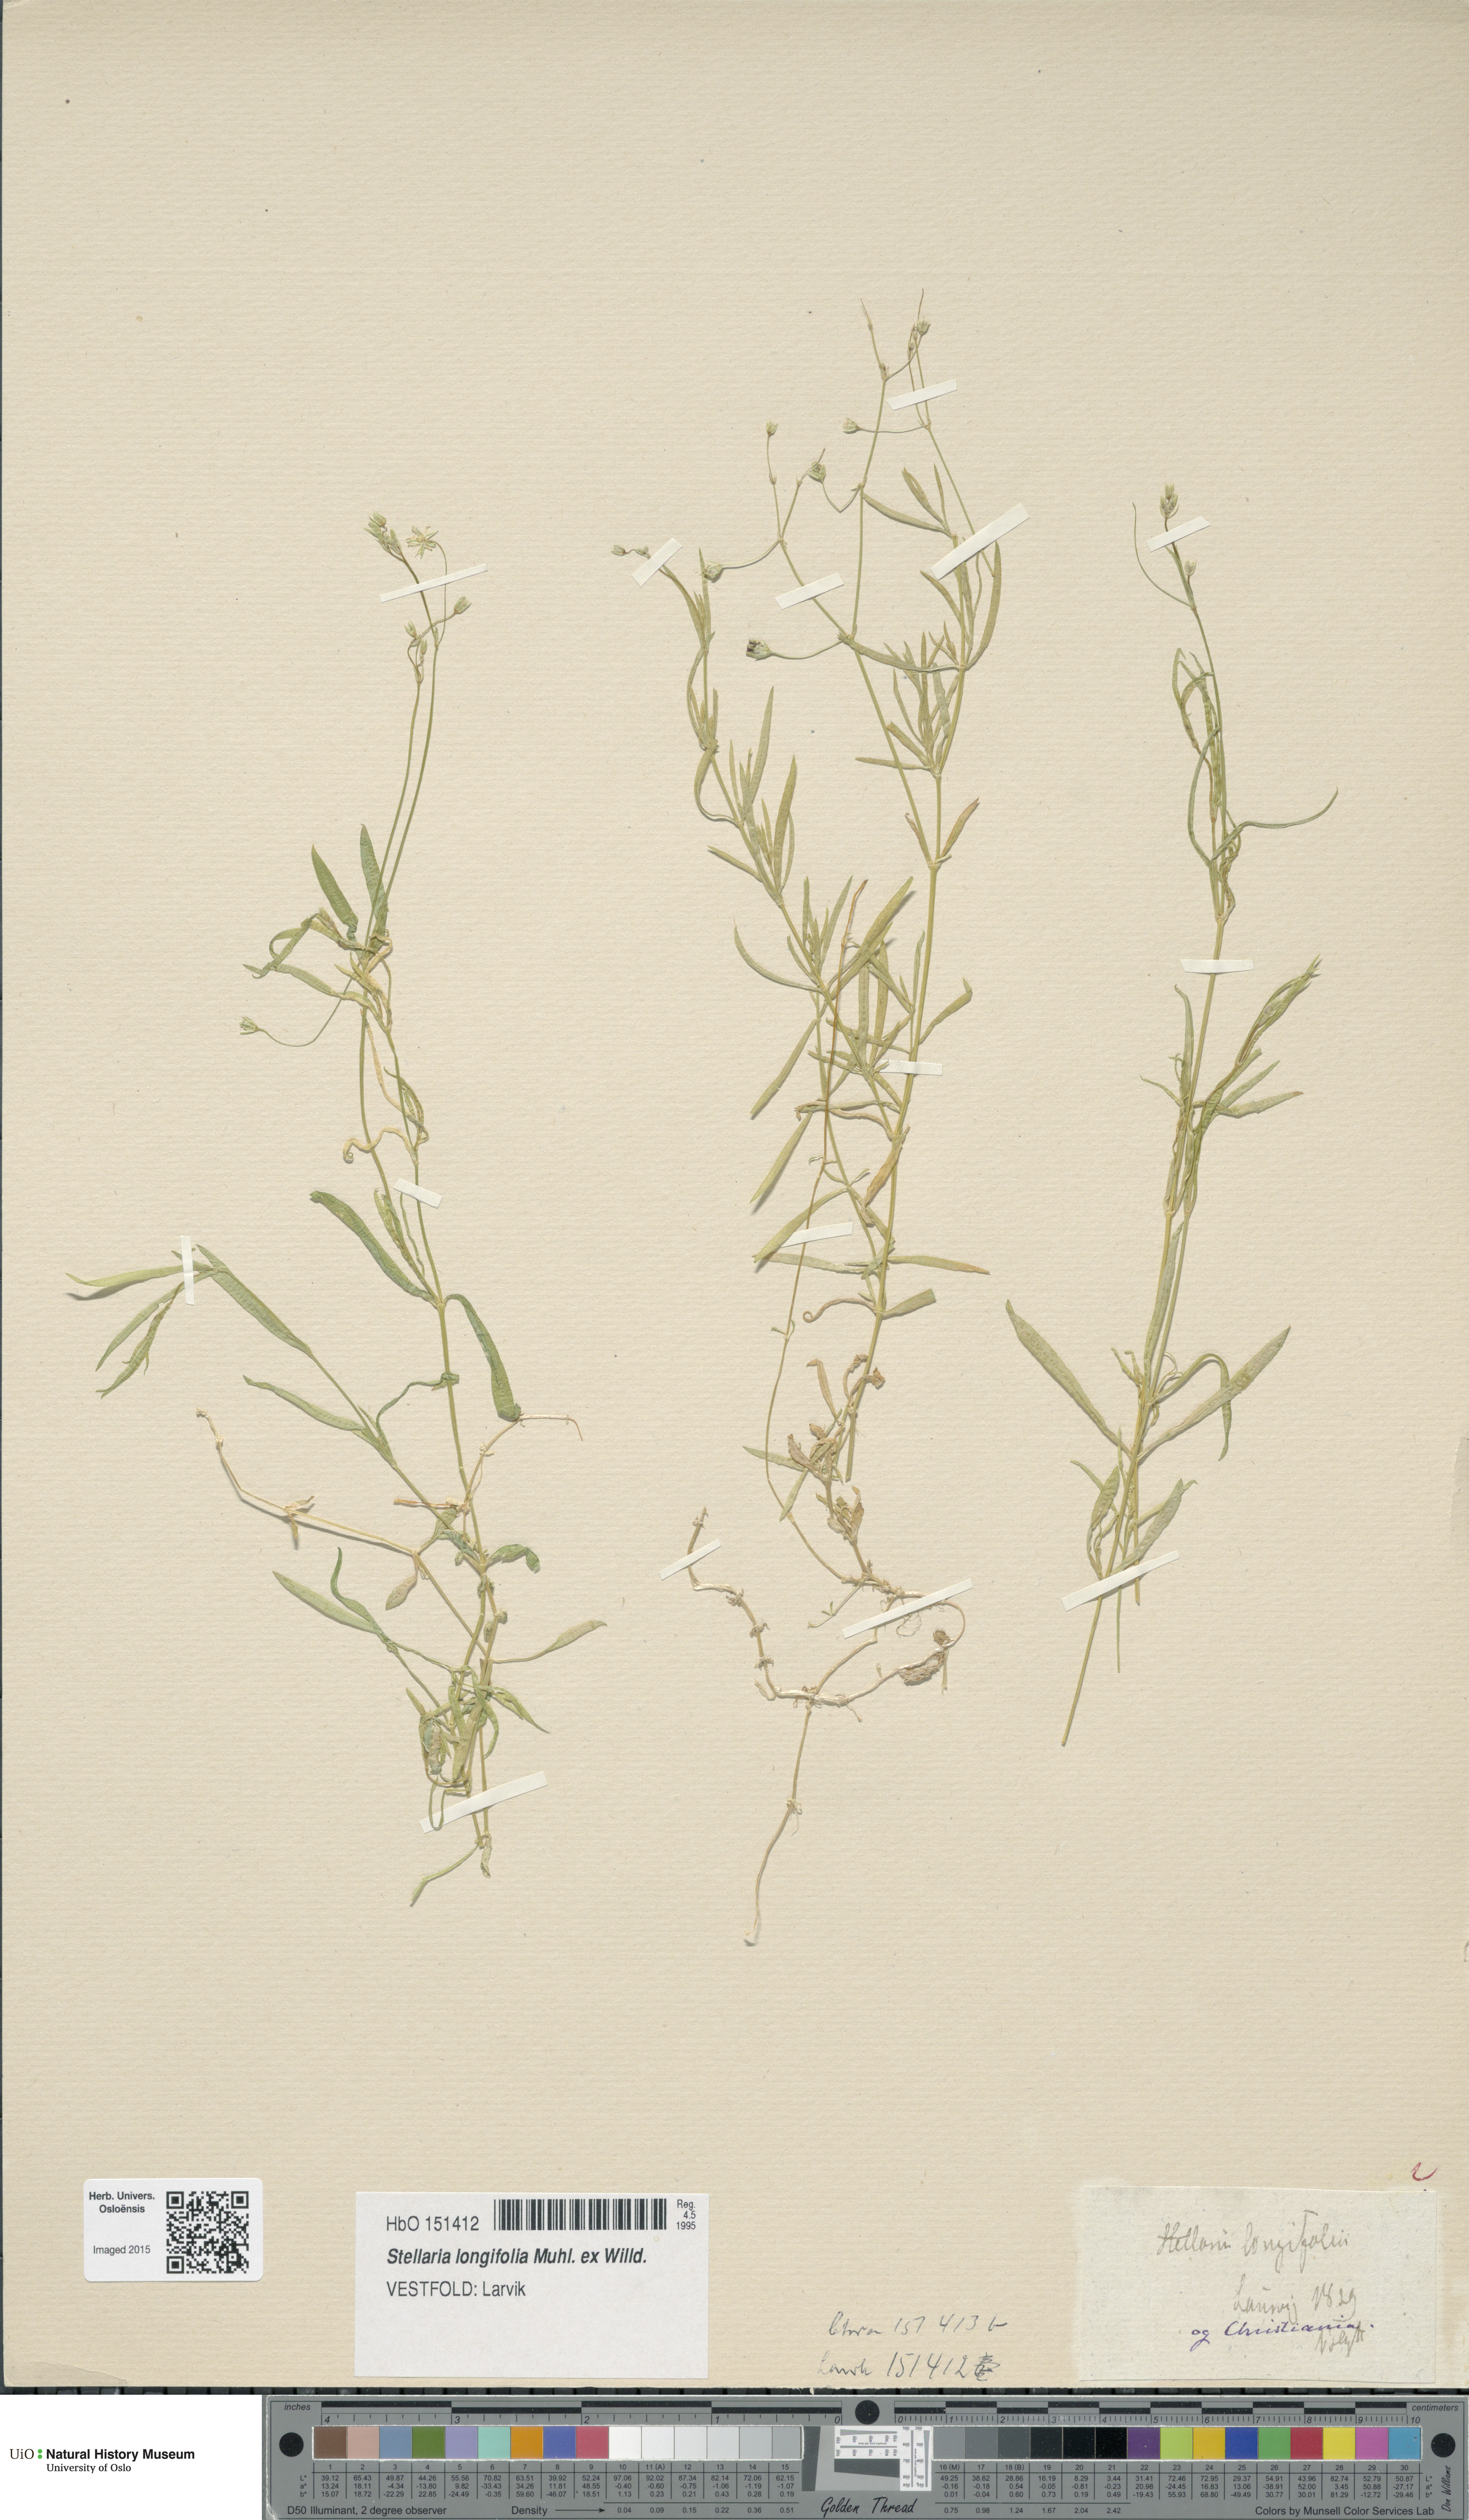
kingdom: Plantae
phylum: Tracheophyta
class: Magnoliopsida
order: Caryophyllales
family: Caryophyllaceae
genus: Stellaria
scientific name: Stellaria longifolia
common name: Long-leaved chickweed
